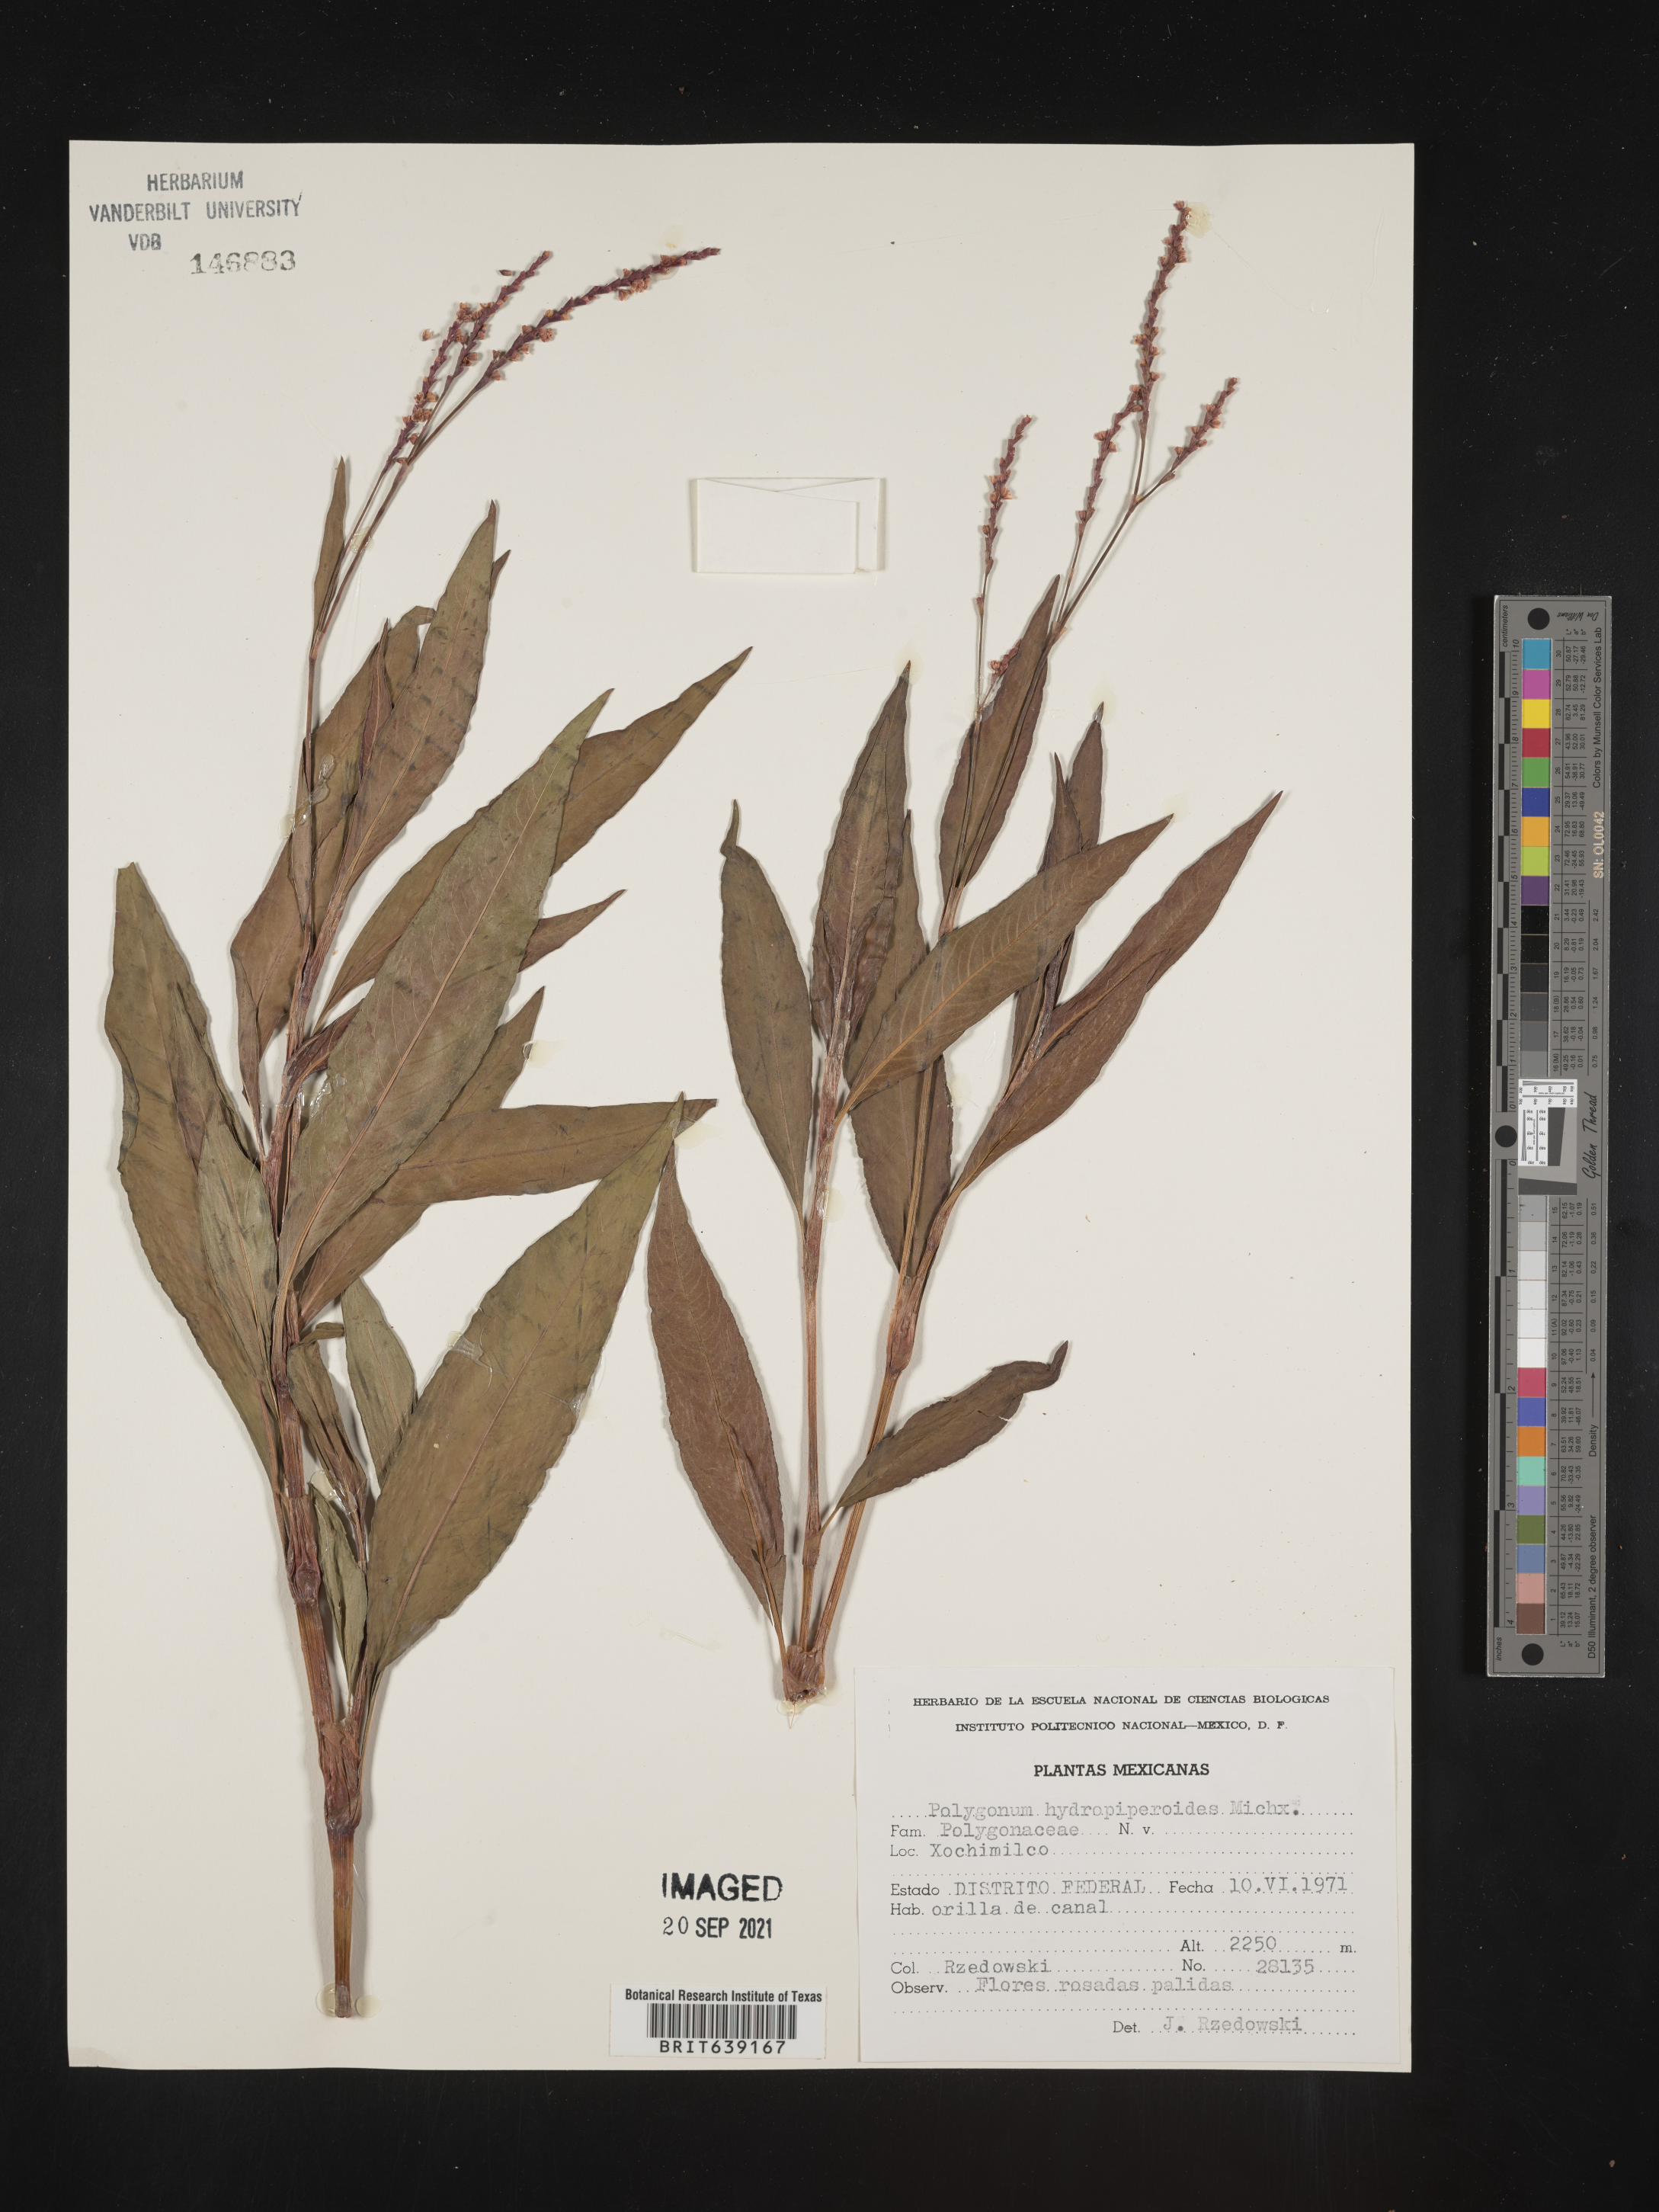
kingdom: Plantae
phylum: Tracheophyta
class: Magnoliopsida
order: Caryophyllales
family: Polygonaceae
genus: Polygonum
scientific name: Polygonum
